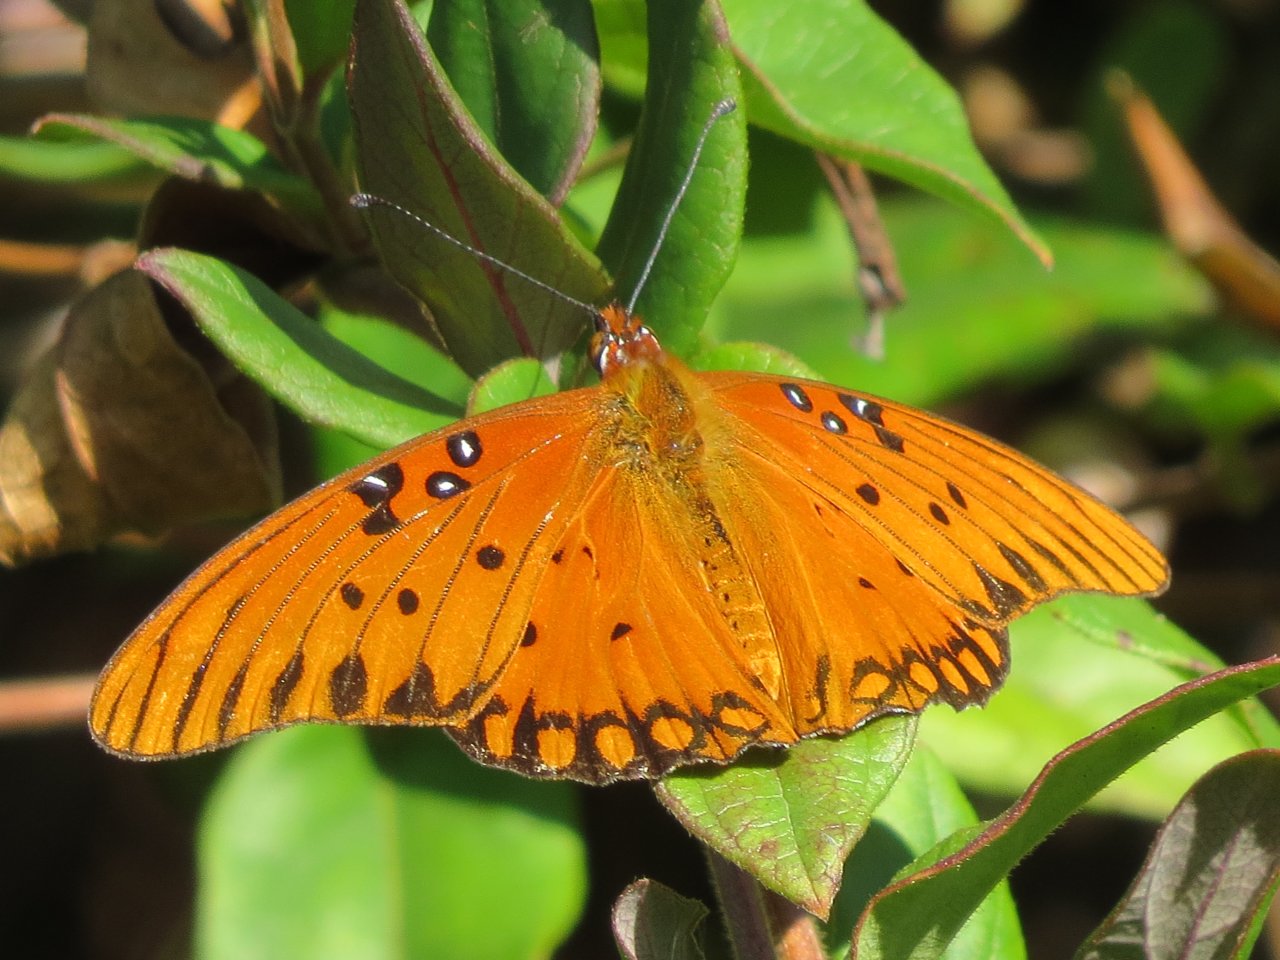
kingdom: Animalia
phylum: Arthropoda
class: Insecta
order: Lepidoptera
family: Nymphalidae
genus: Dione
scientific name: Dione vanillae
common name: Gulf Fritillary
